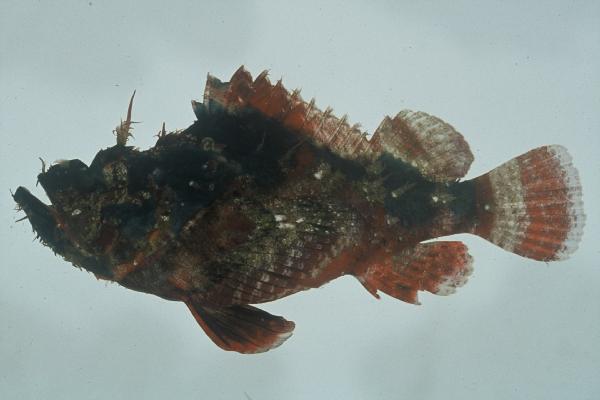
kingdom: Animalia
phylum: Chordata
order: Scorpaeniformes
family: Scorpaenidae
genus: Scorpaenopsis
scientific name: Scorpaenopsis diabolus
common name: False stonefish
